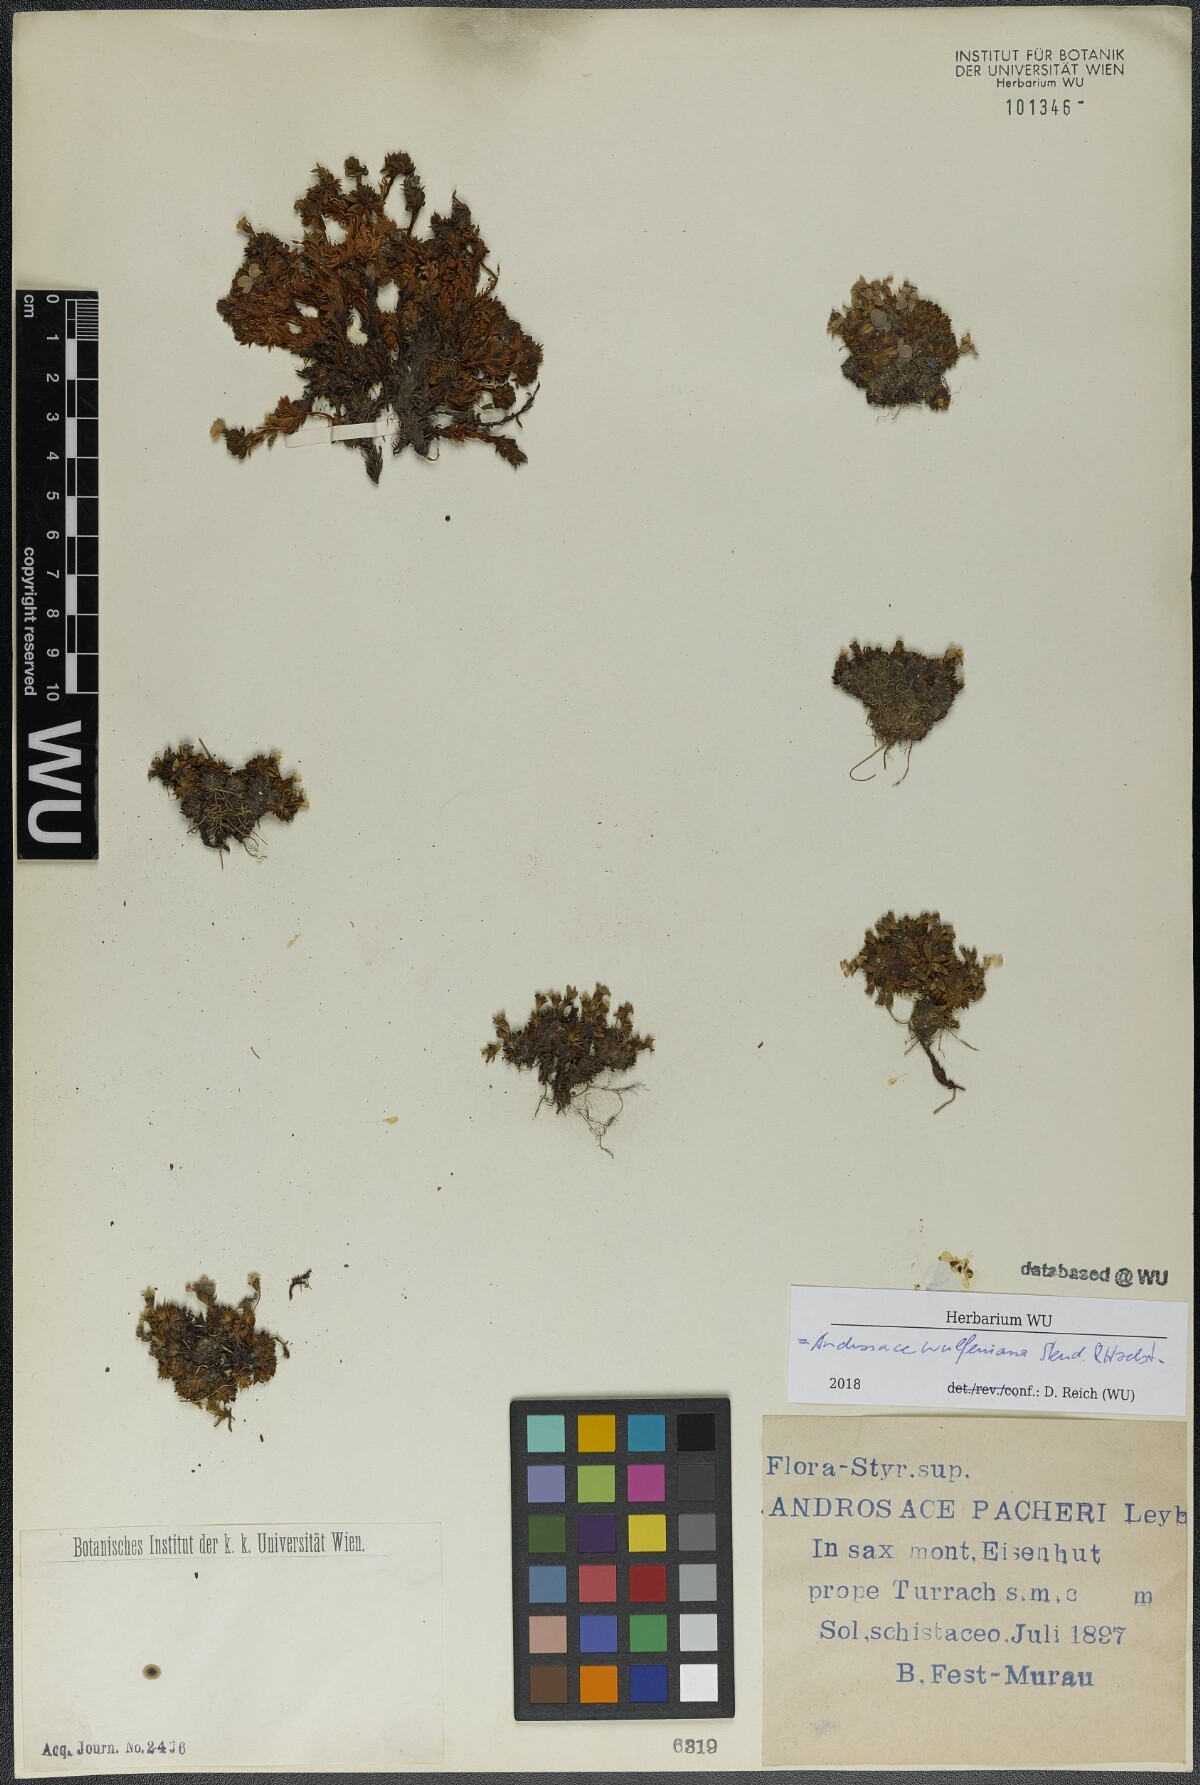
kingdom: Plantae
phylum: Tracheophyta
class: Magnoliopsida
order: Ericales
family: Primulaceae
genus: Androsace
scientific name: Androsace wulfeniana
